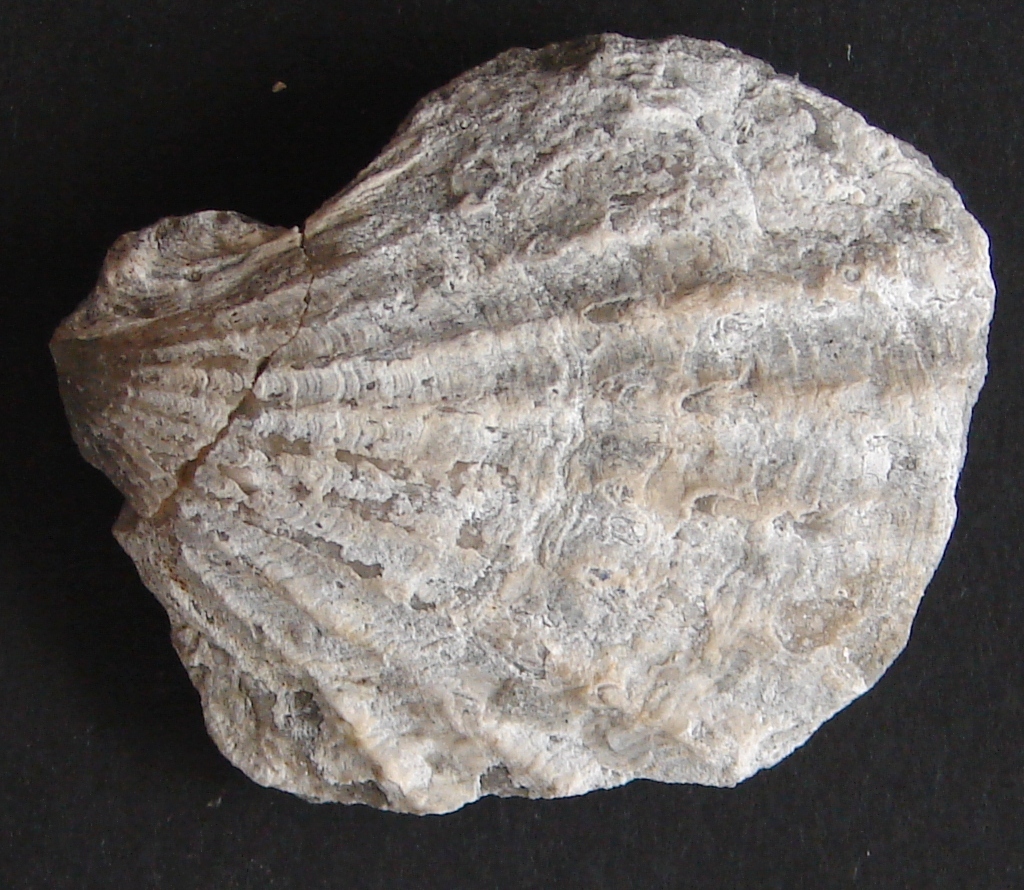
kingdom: Animalia
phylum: Mollusca
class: Bivalvia
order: Limida
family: Limidae
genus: Ctenostreon
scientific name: Ctenostreon
